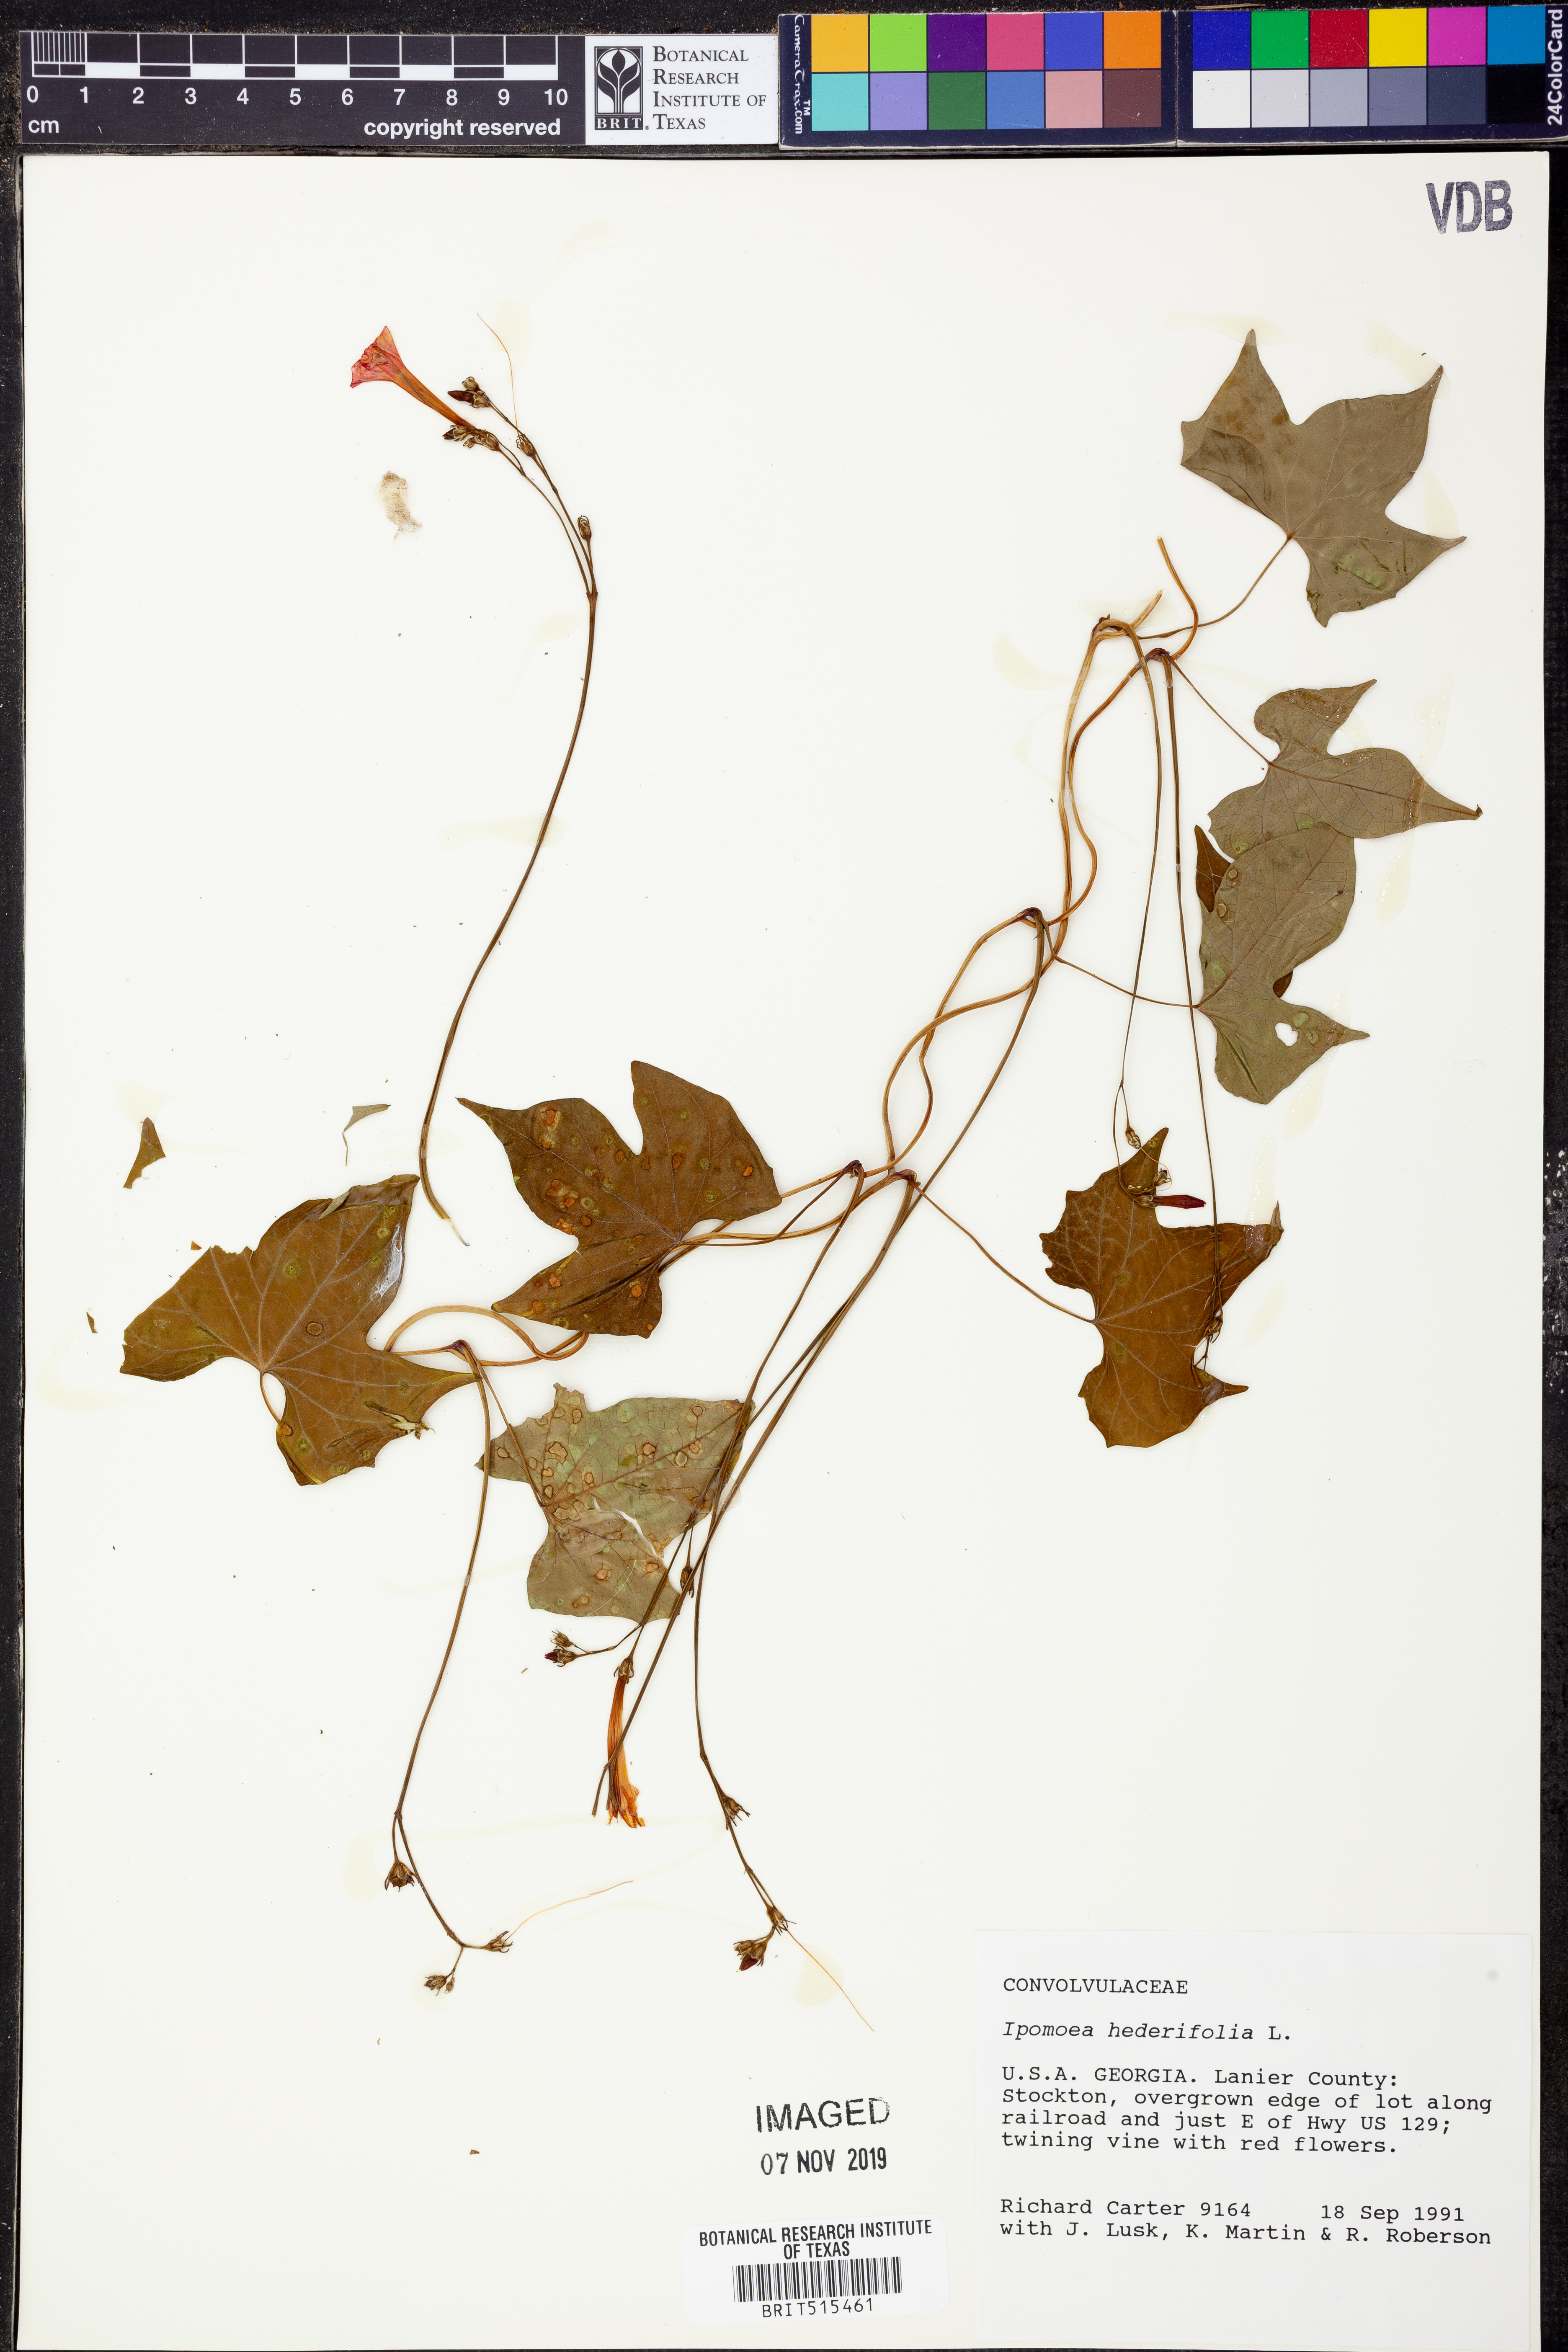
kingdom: Plantae
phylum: Tracheophyta
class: Magnoliopsida
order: Solanales
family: Convolvulaceae
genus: Ipomoea
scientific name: Ipomoea hederifolia
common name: Ivy-leaf morning-glory
